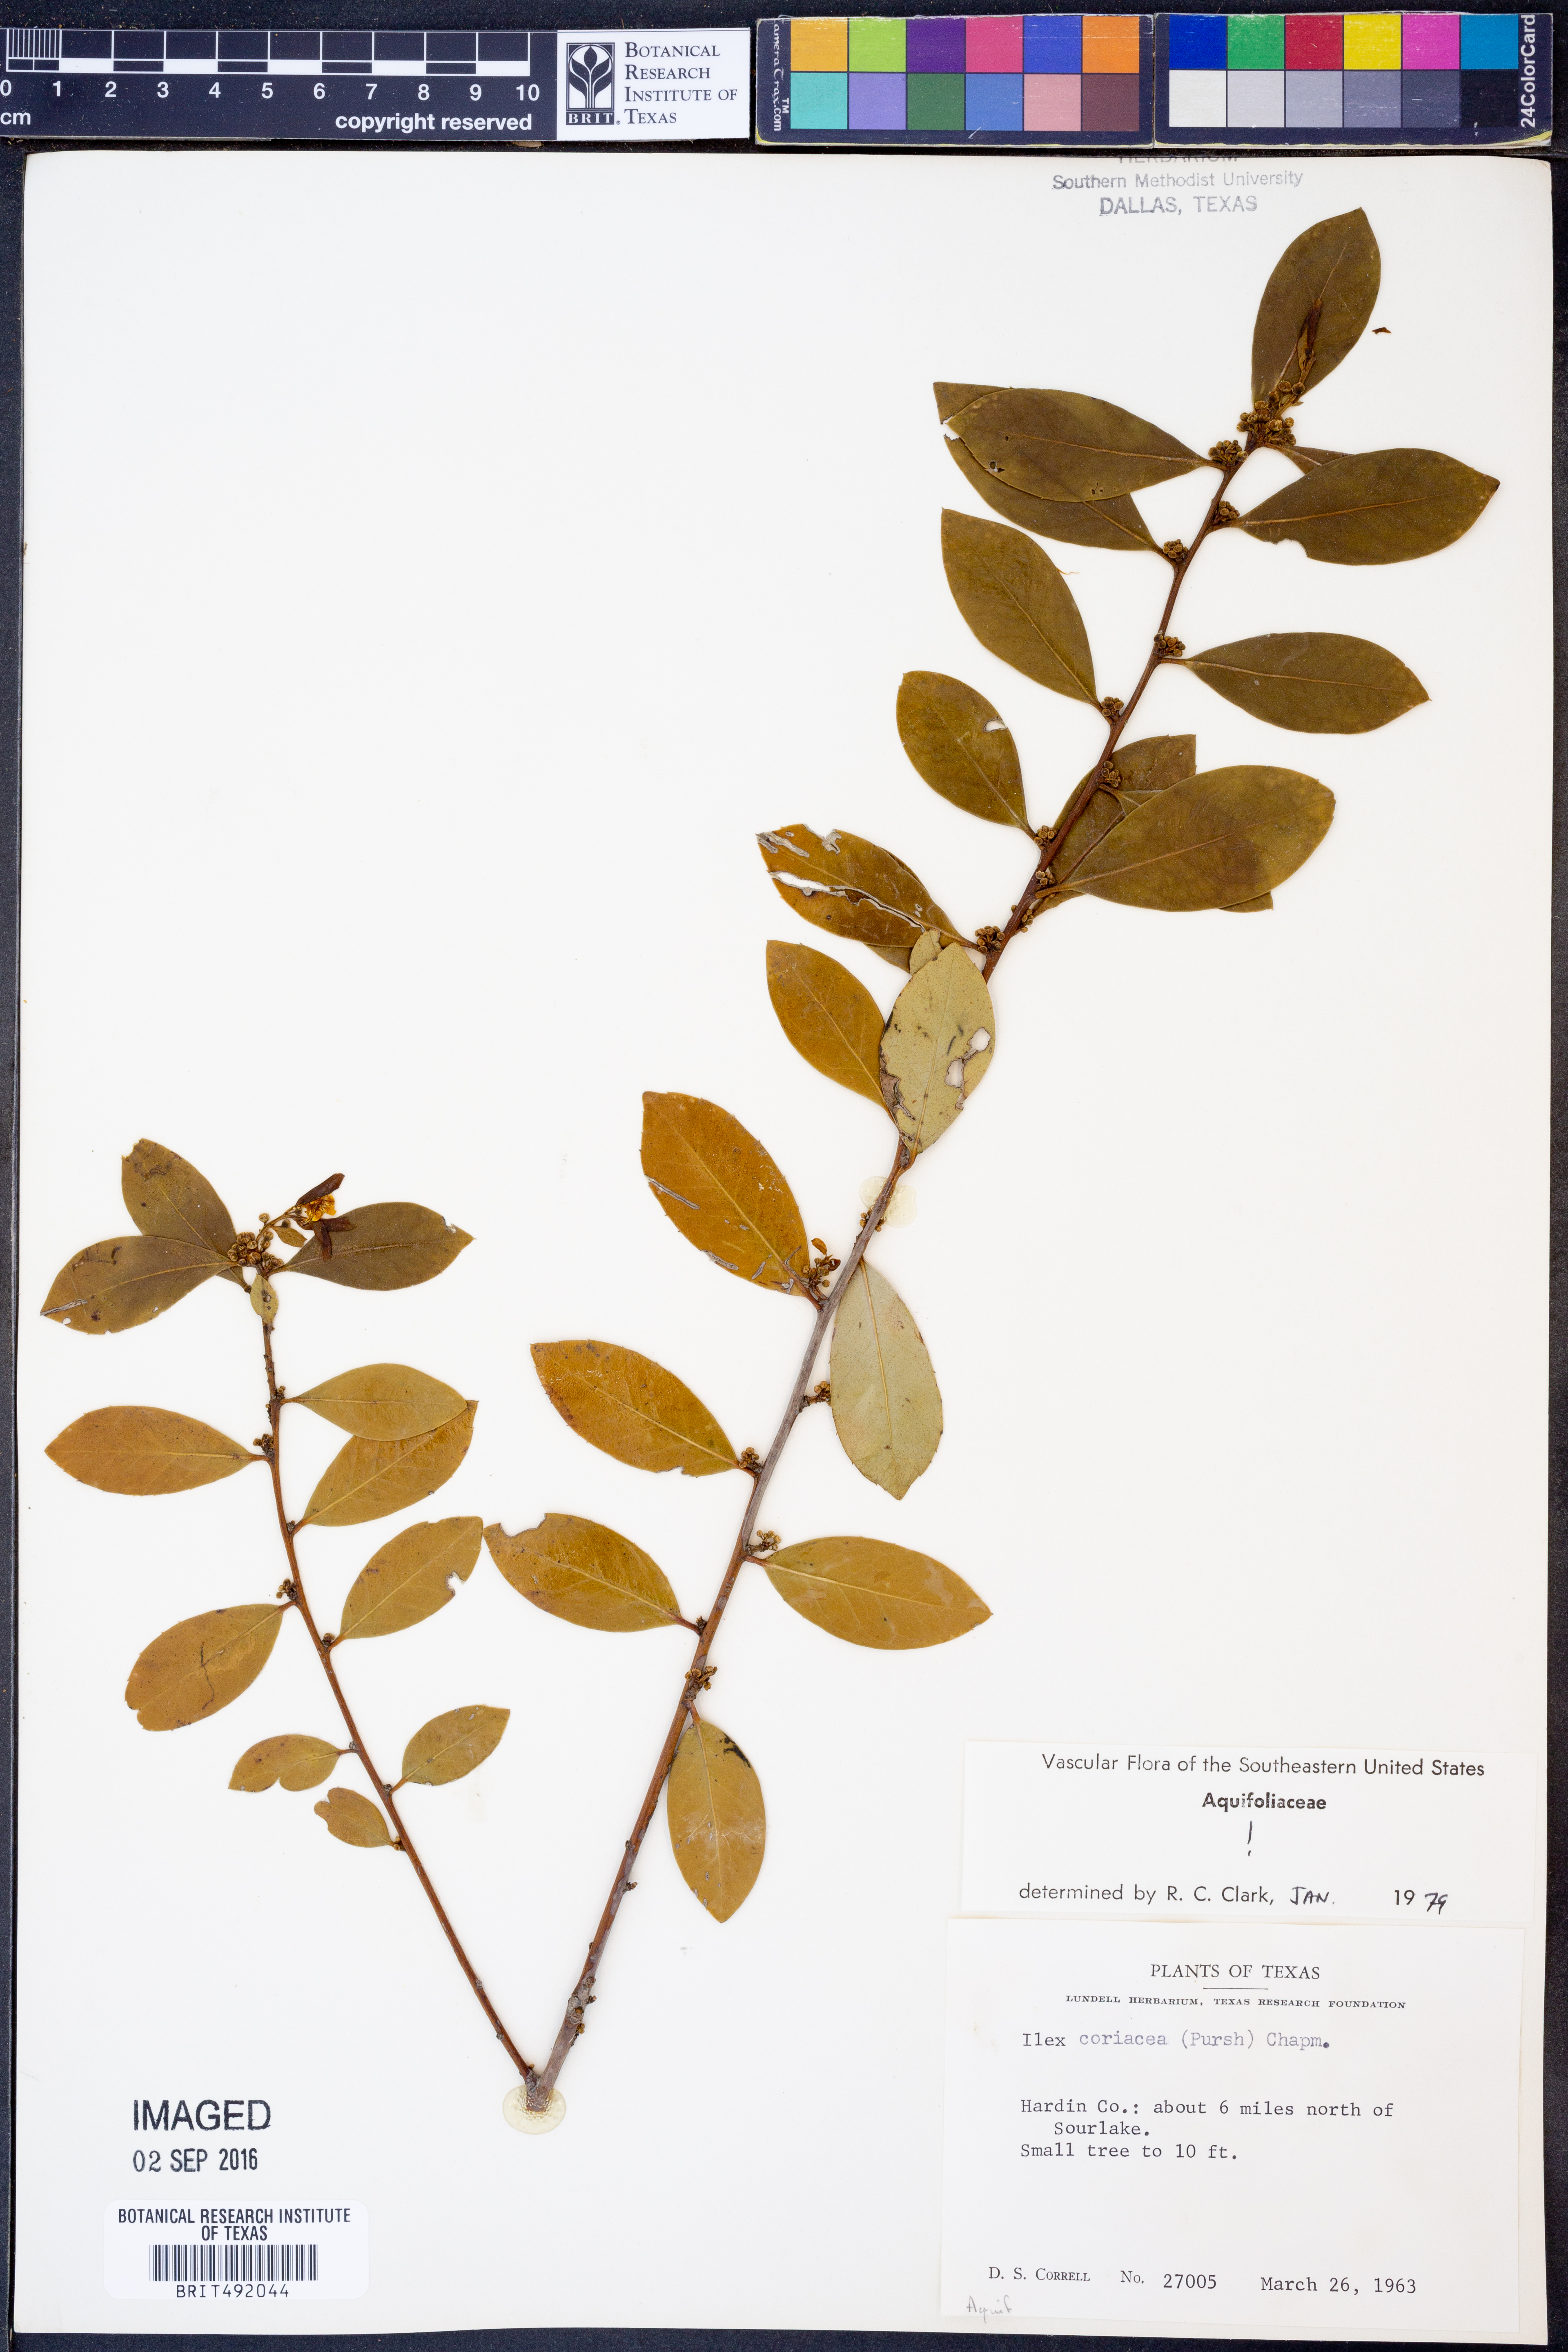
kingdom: Plantae
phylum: Tracheophyta
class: Magnoliopsida
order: Aquifoliales
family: Aquifoliaceae
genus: Ilex
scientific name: Ilex coriacea
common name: Sweet gallberry
